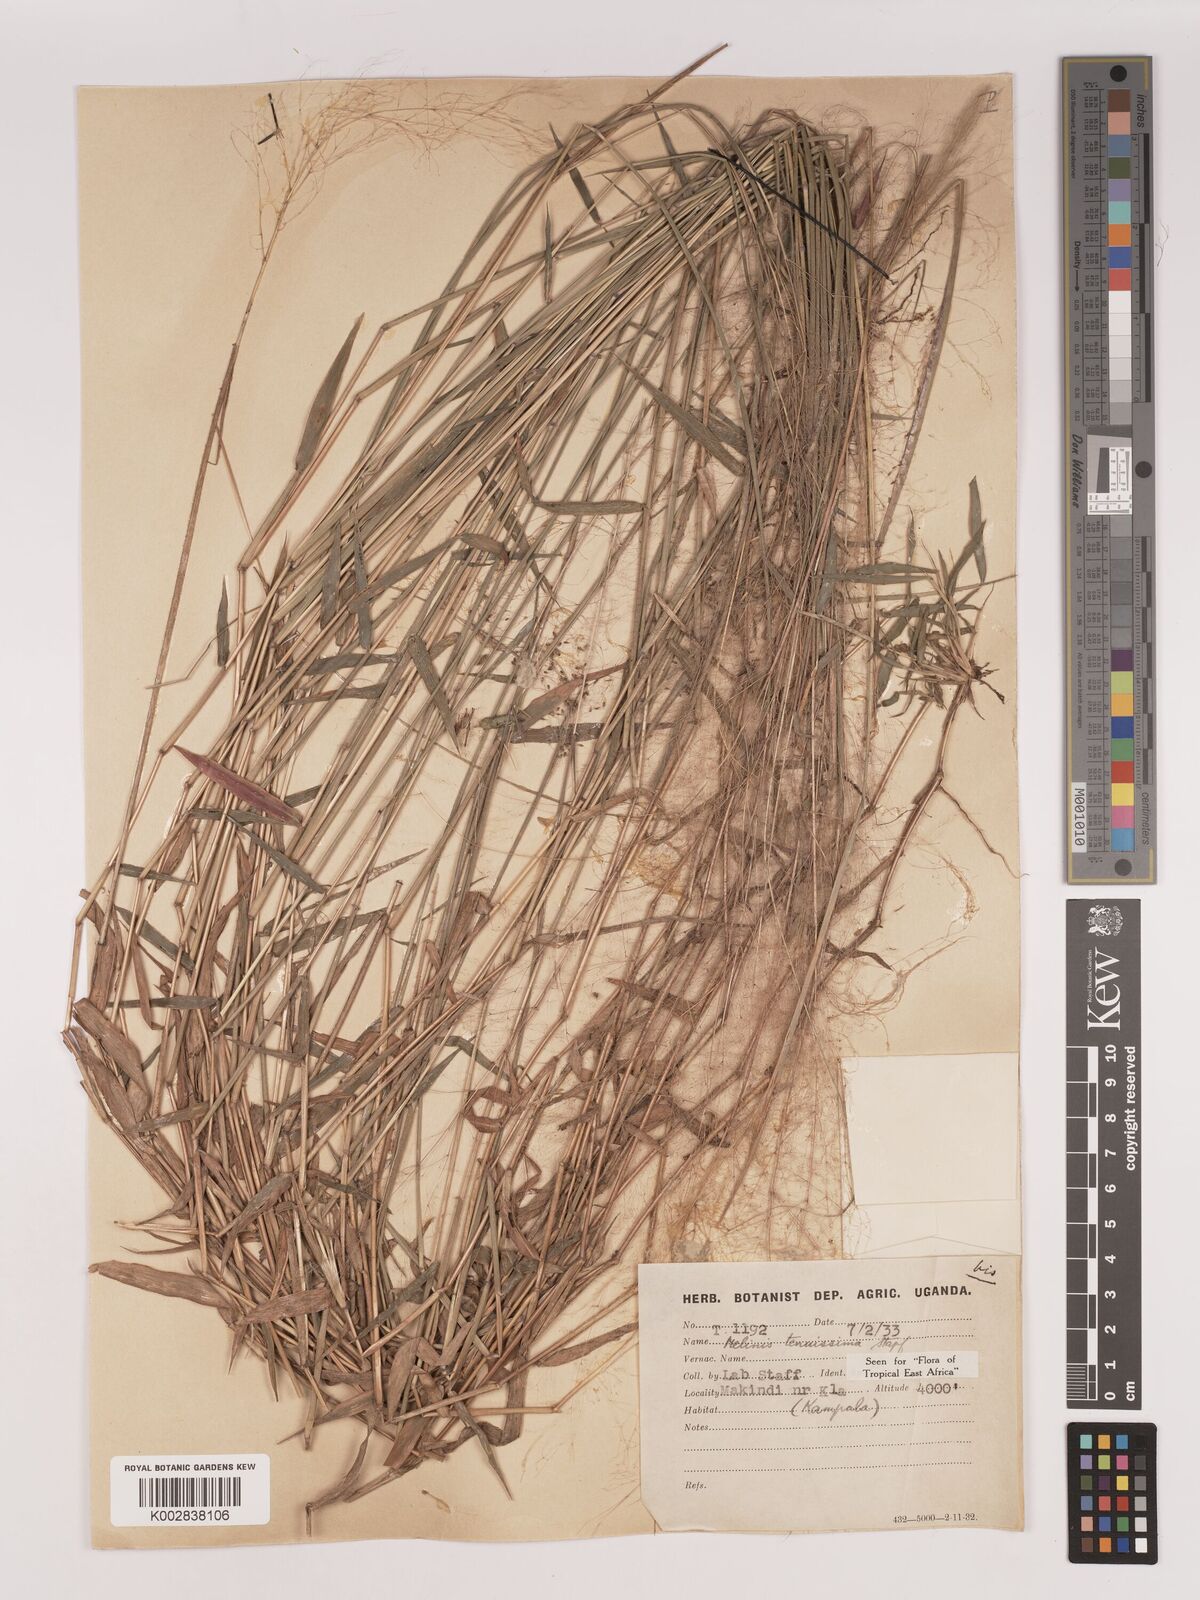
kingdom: Plantae
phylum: Tracheophyta
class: Liliopsida
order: Poales
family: Poaceae
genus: Melinis
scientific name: Melinis tenuissima
